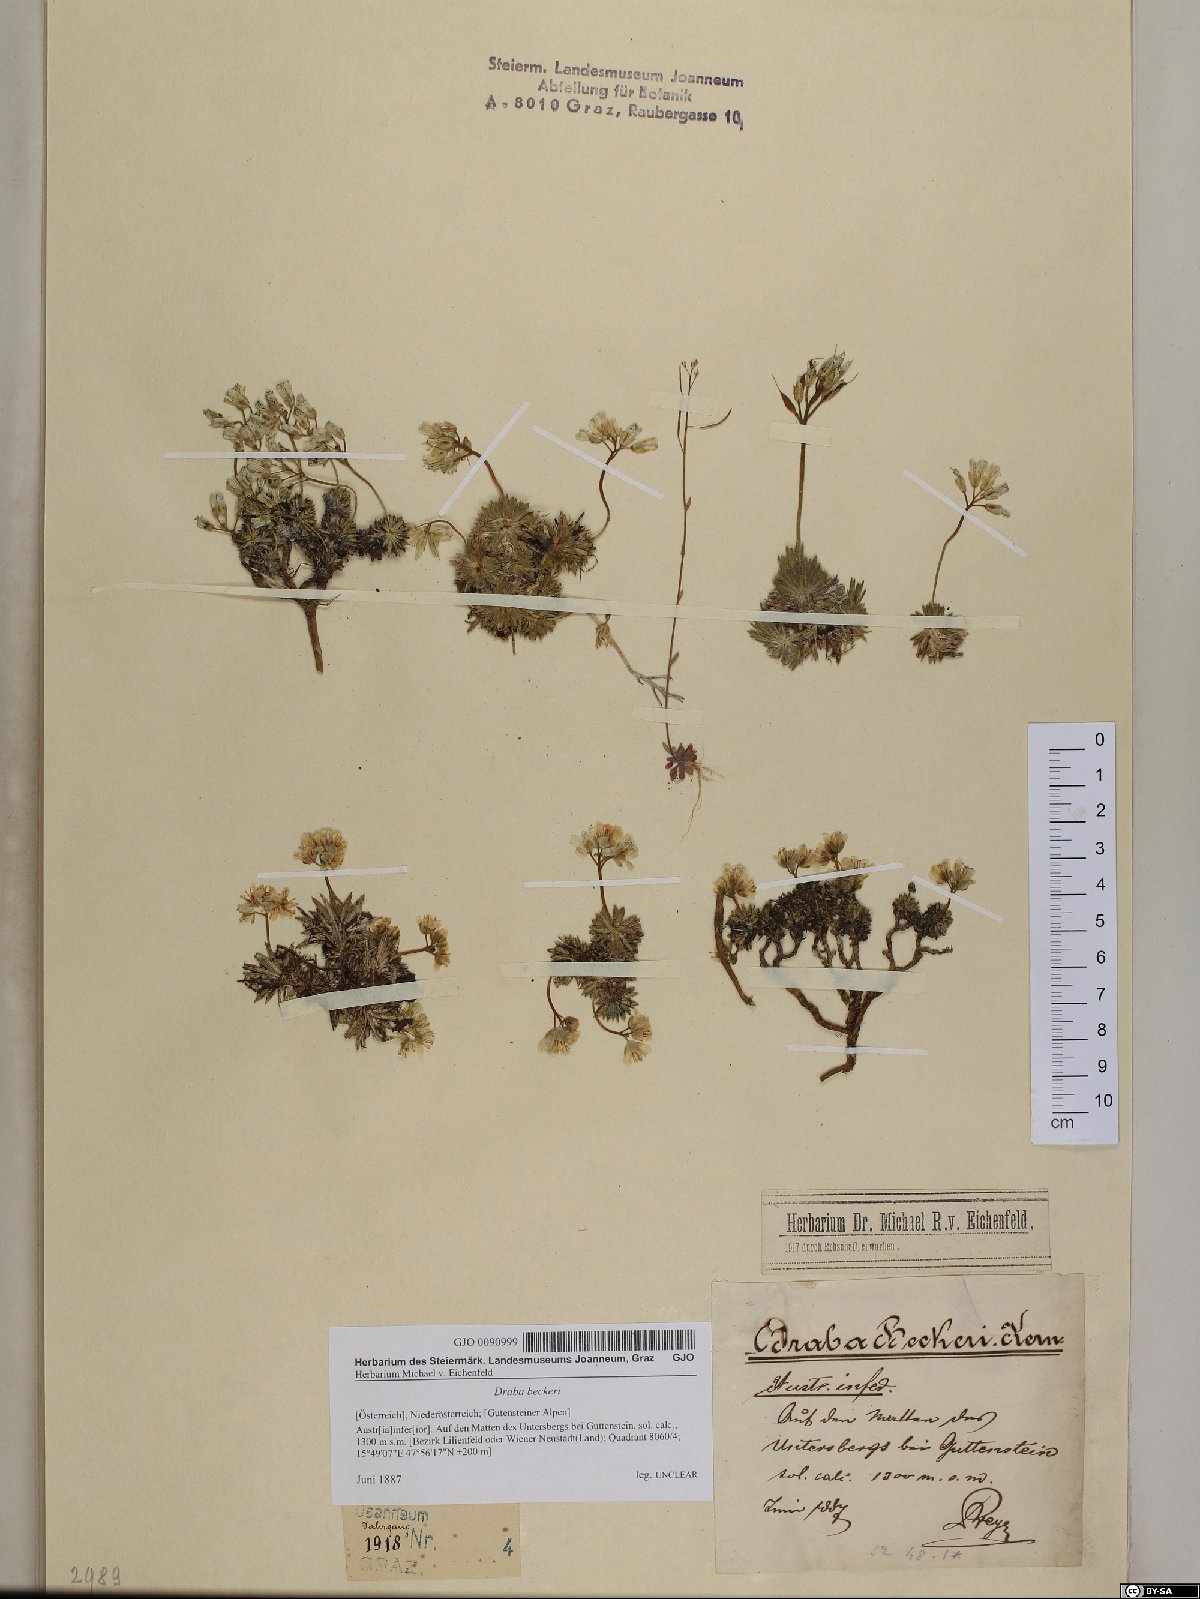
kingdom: Plantae
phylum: Tracheophyta
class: Magnoliopsida
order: Brassicales
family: Brassicaceae
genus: Draba
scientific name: Draba aizoides
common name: Yellow whitlowgrass
